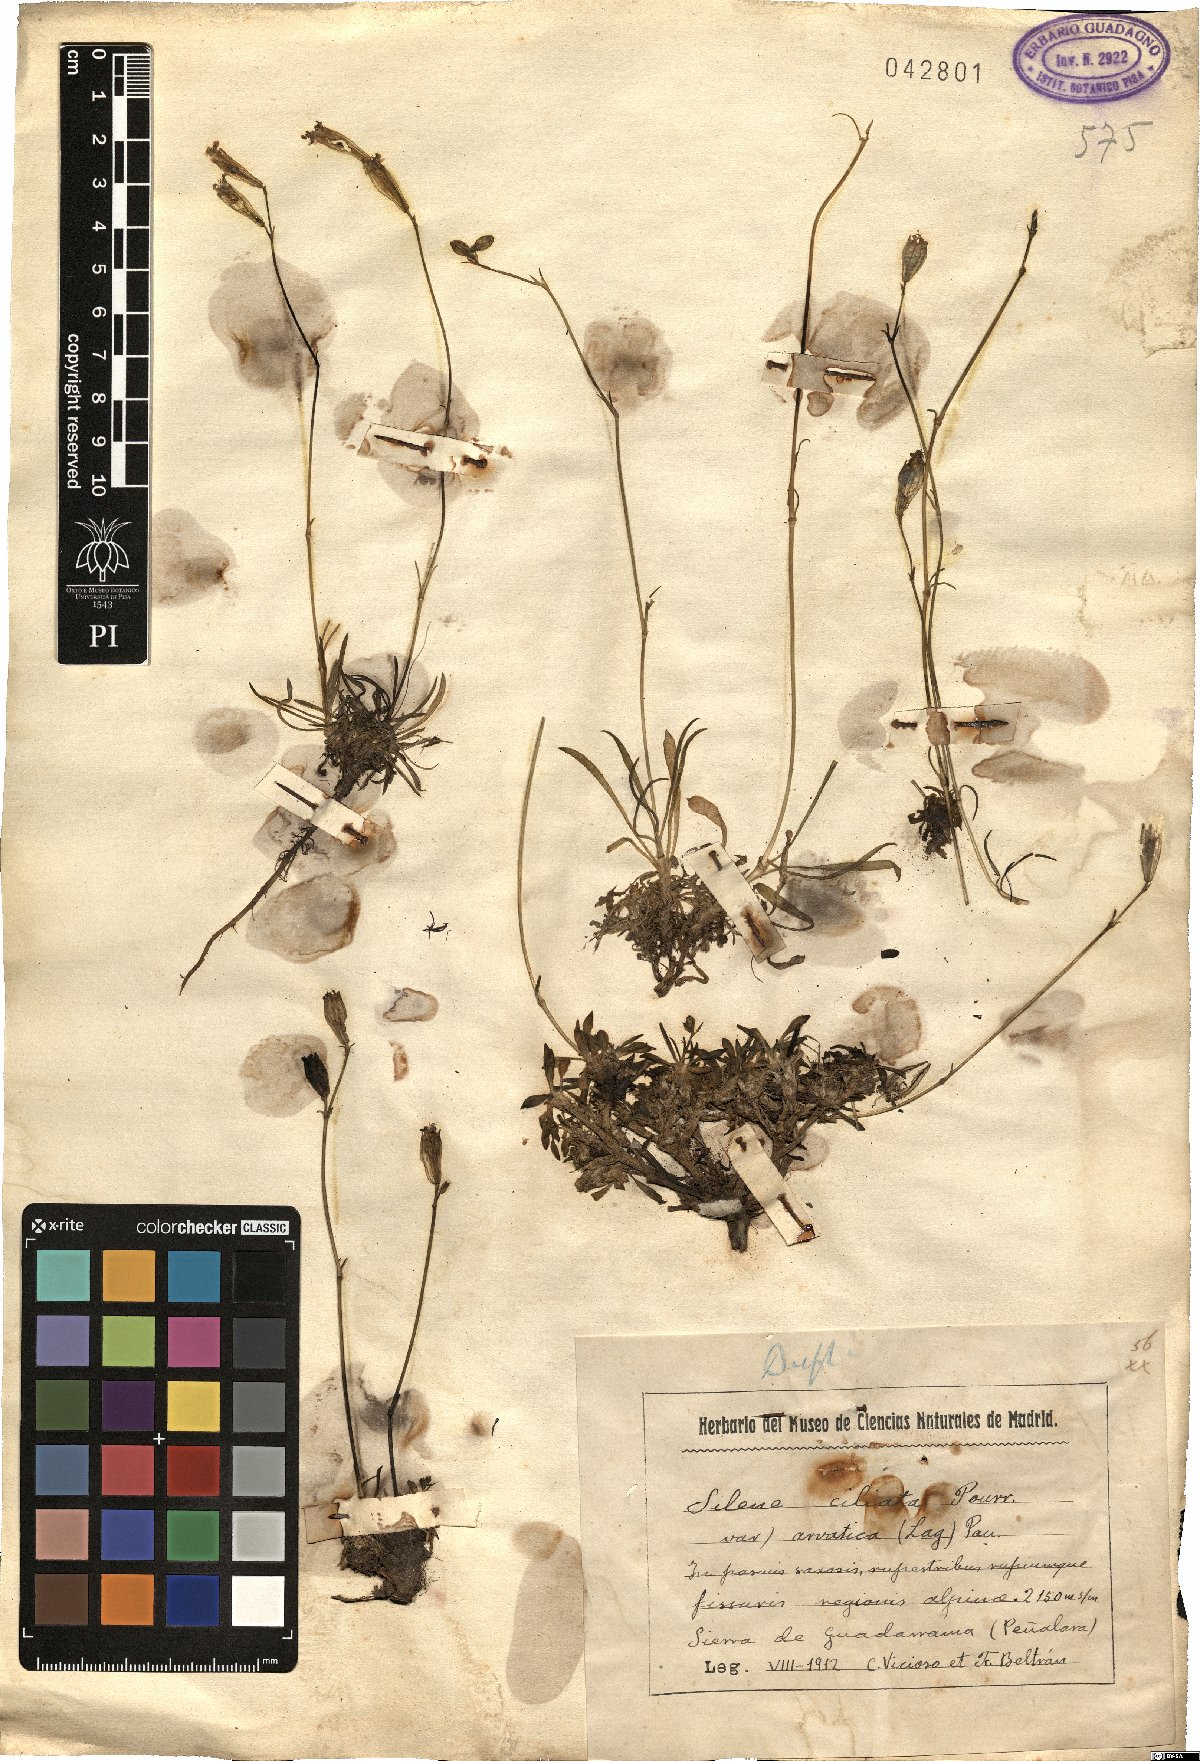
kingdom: Plantae
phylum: Tracheophyta
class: Magnoliopsida
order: Caryophyllales
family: Caryophyllaceae
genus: Silene
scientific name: Silene ciliata
